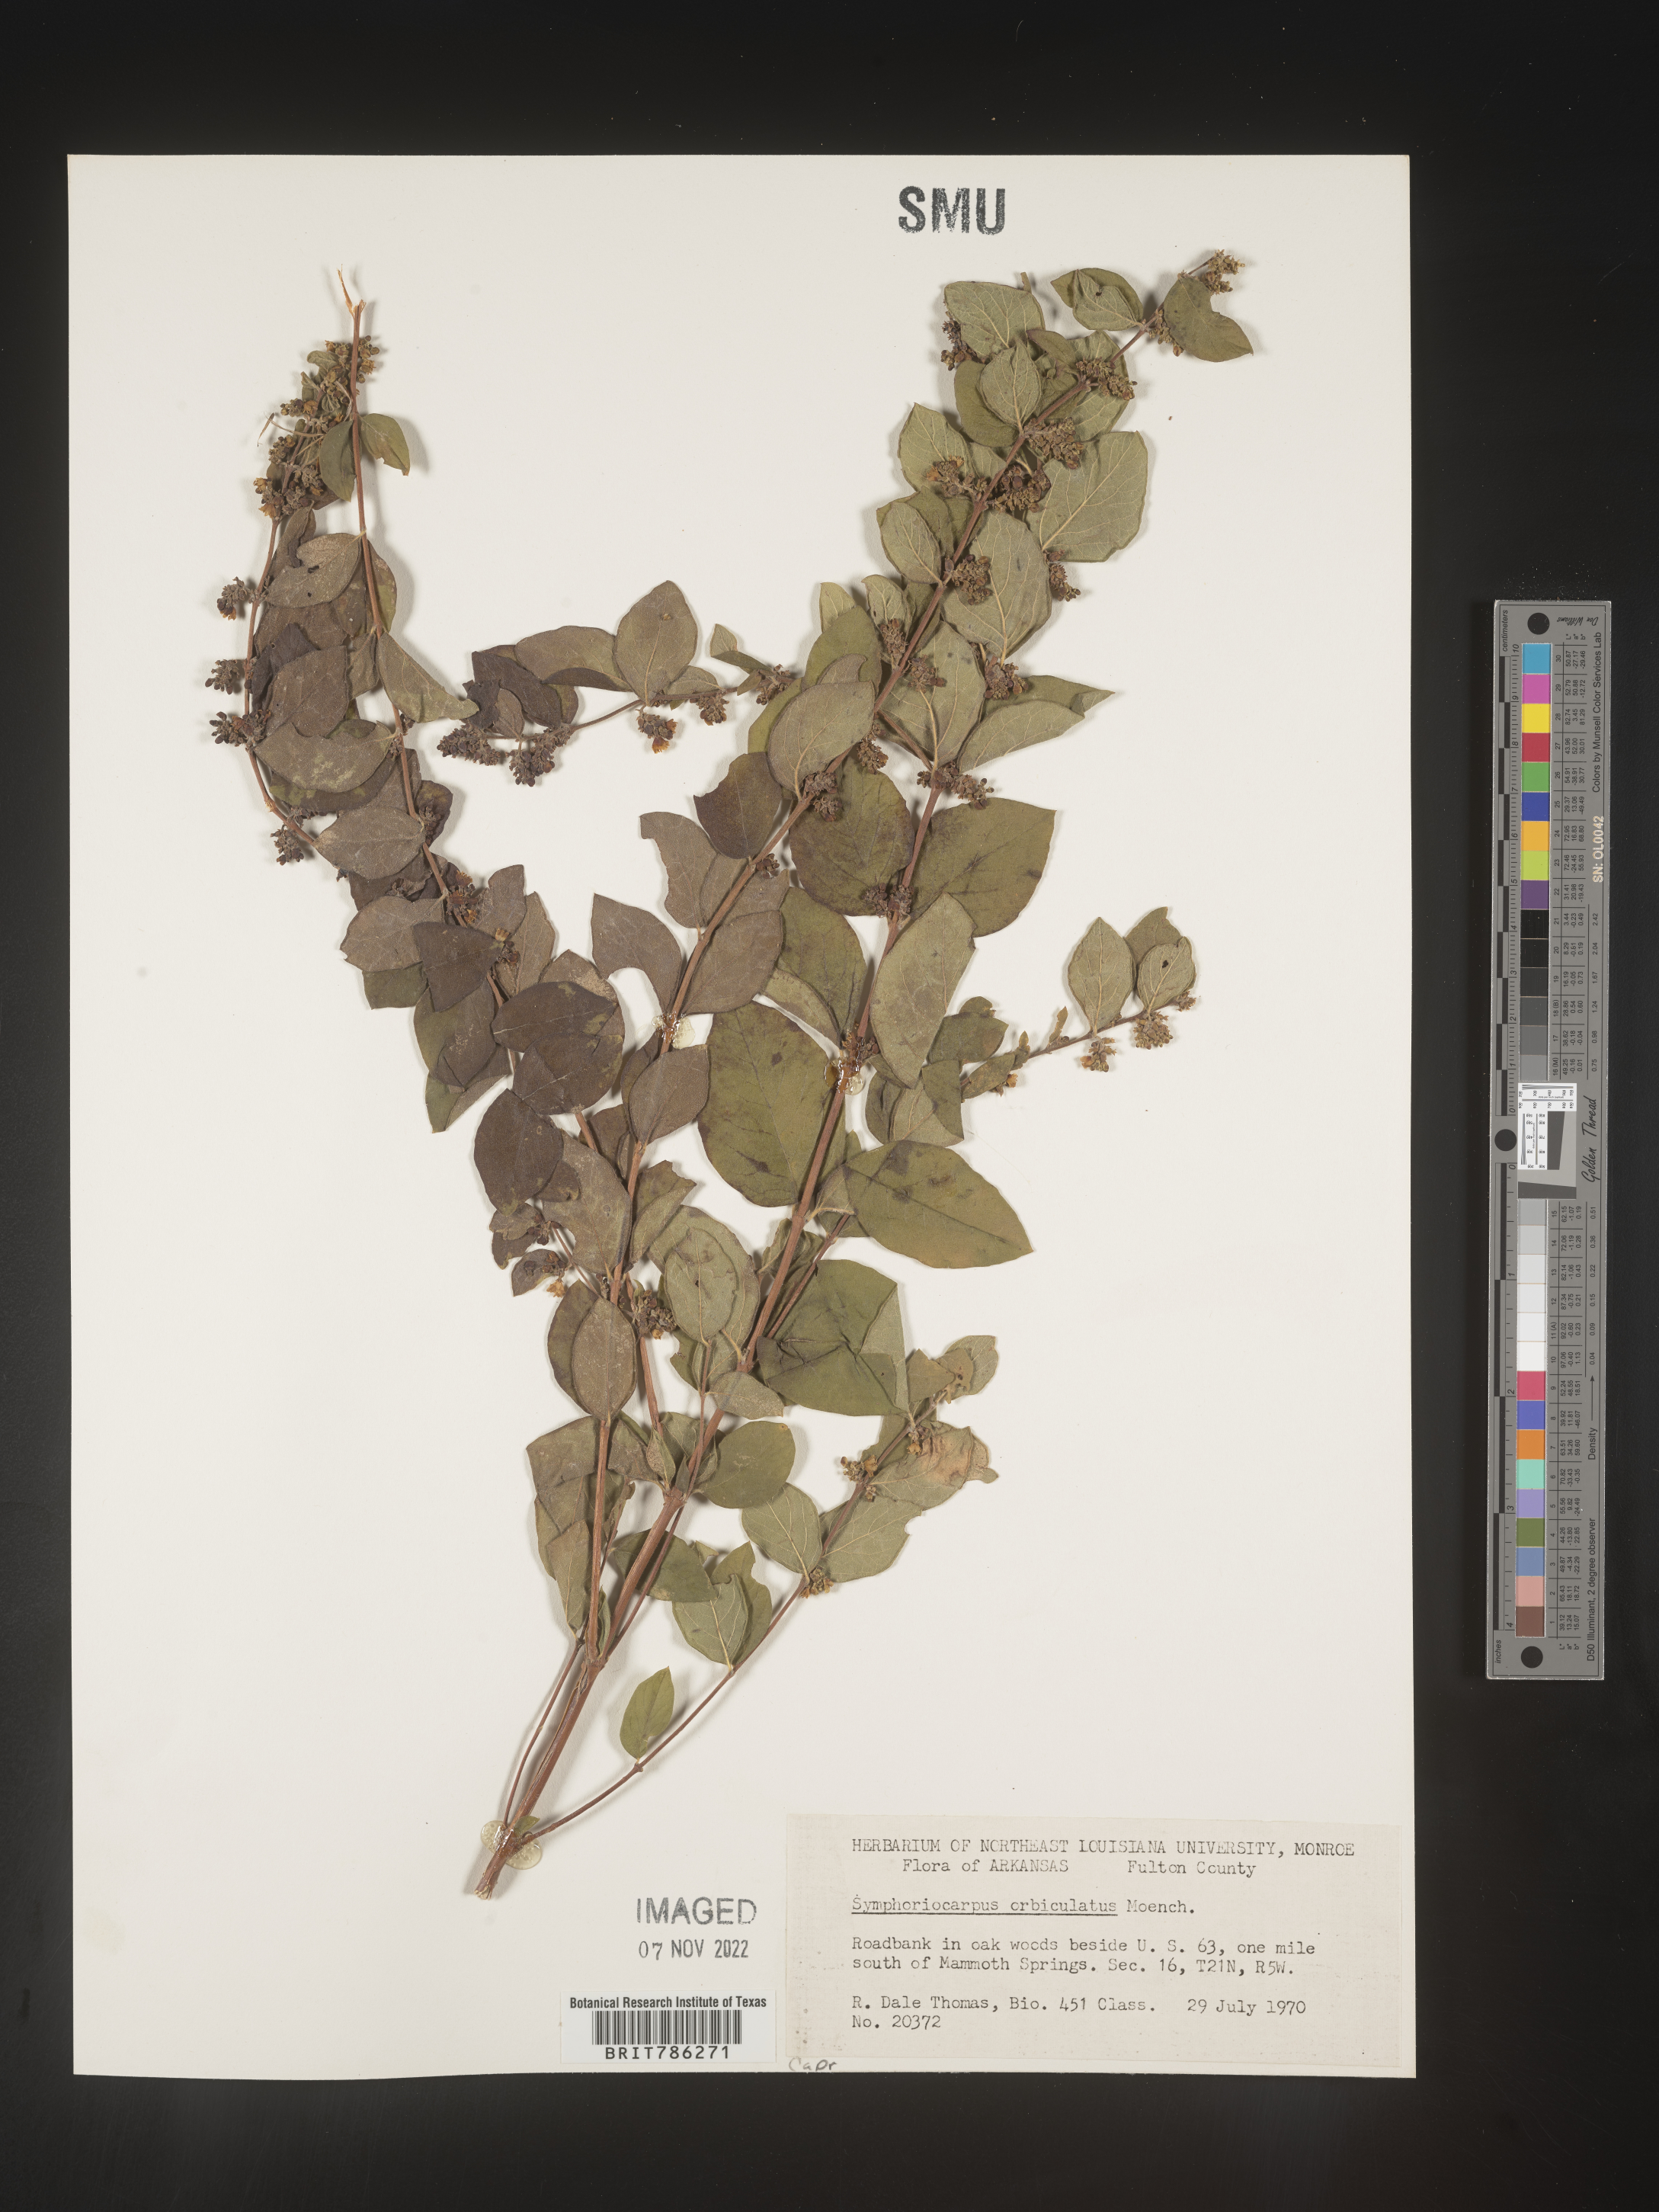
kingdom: Plantae
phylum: Tracheophyta
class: Magnoliopsida
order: Dipsacales
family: Caprifoliaceae
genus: Symphoricarpos
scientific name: Symphoricarpos orbiculatus
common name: Coralberry
